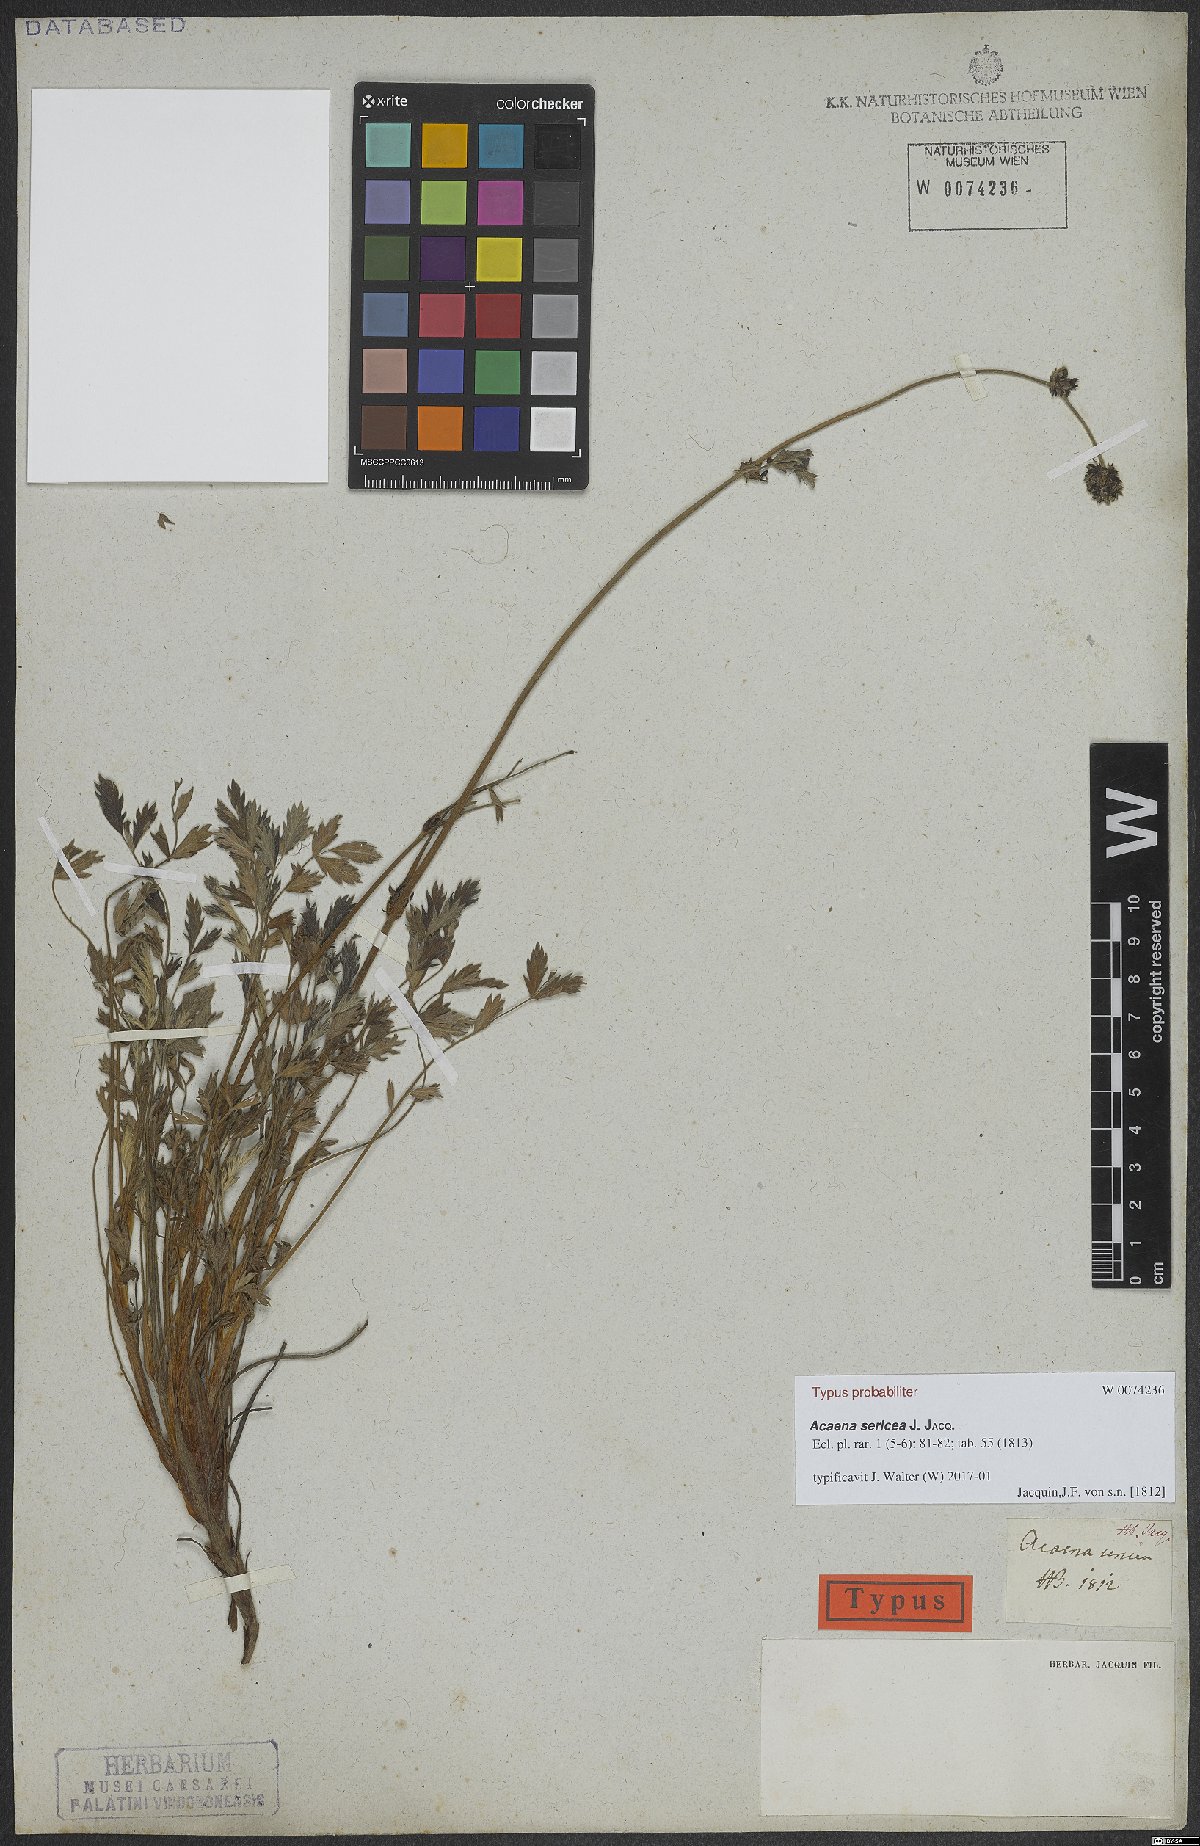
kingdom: Plantae
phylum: Tracheophyta
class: Magnoliopsida
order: Rosales
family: Rosaceae
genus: Acaena
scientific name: Acaena sericea
